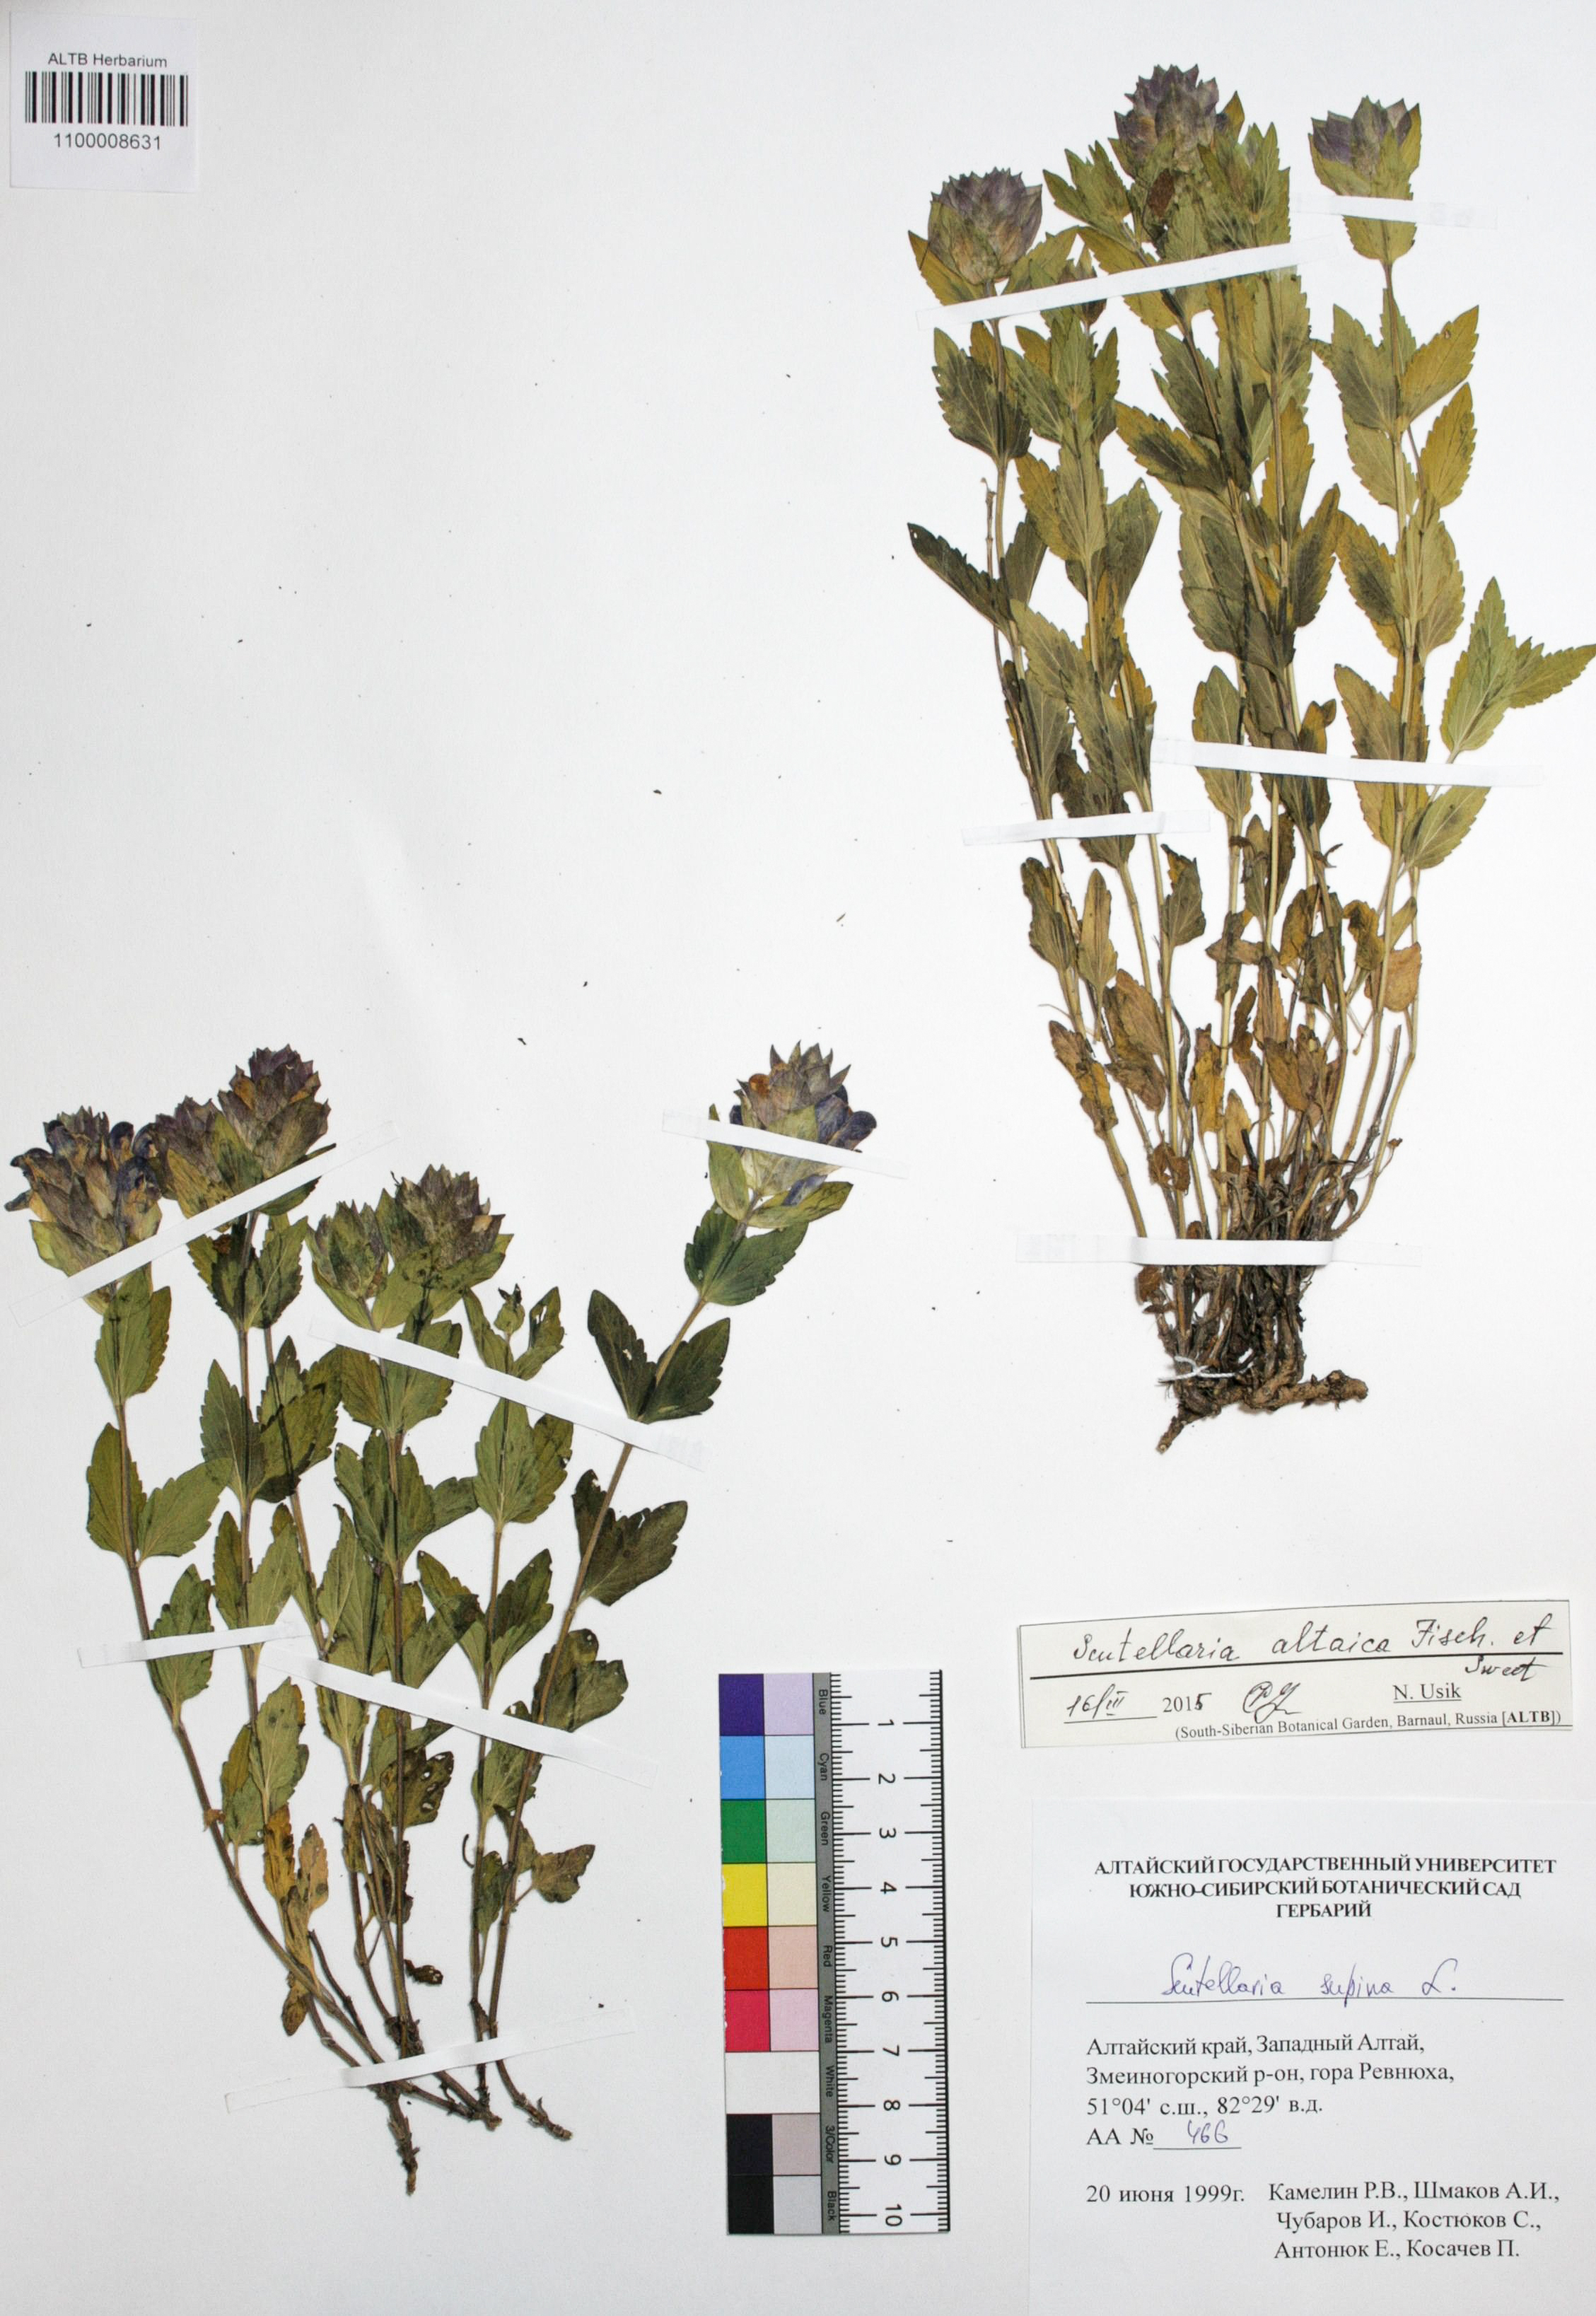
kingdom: Plantae
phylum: Tracheophyta
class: Magnoliopsida
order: Lamiales
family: Lamiaceae
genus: Scutellaria
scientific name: Scutellaria supina
